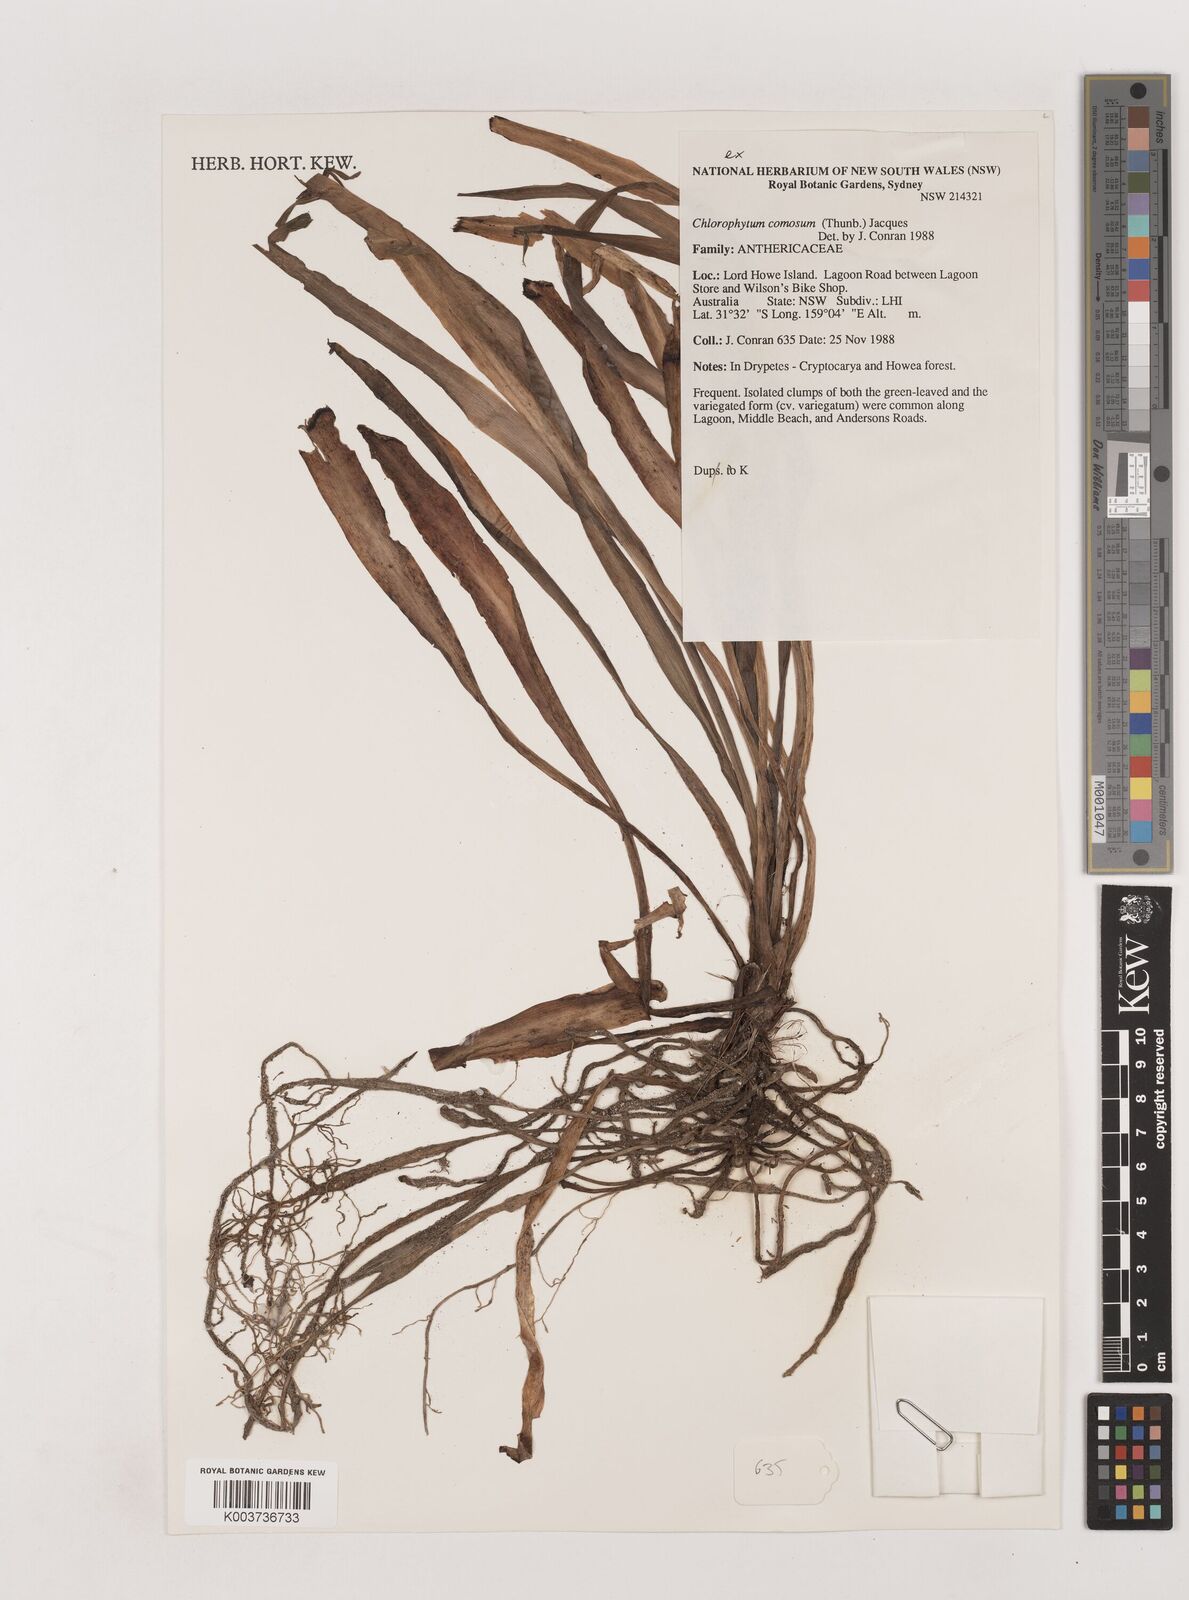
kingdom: Plantae
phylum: Tracheophyta
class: Liliopsida
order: Asparagales
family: Asparagaceae
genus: Chlorophytum
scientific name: Chlorophytum comosum
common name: Spider plant
